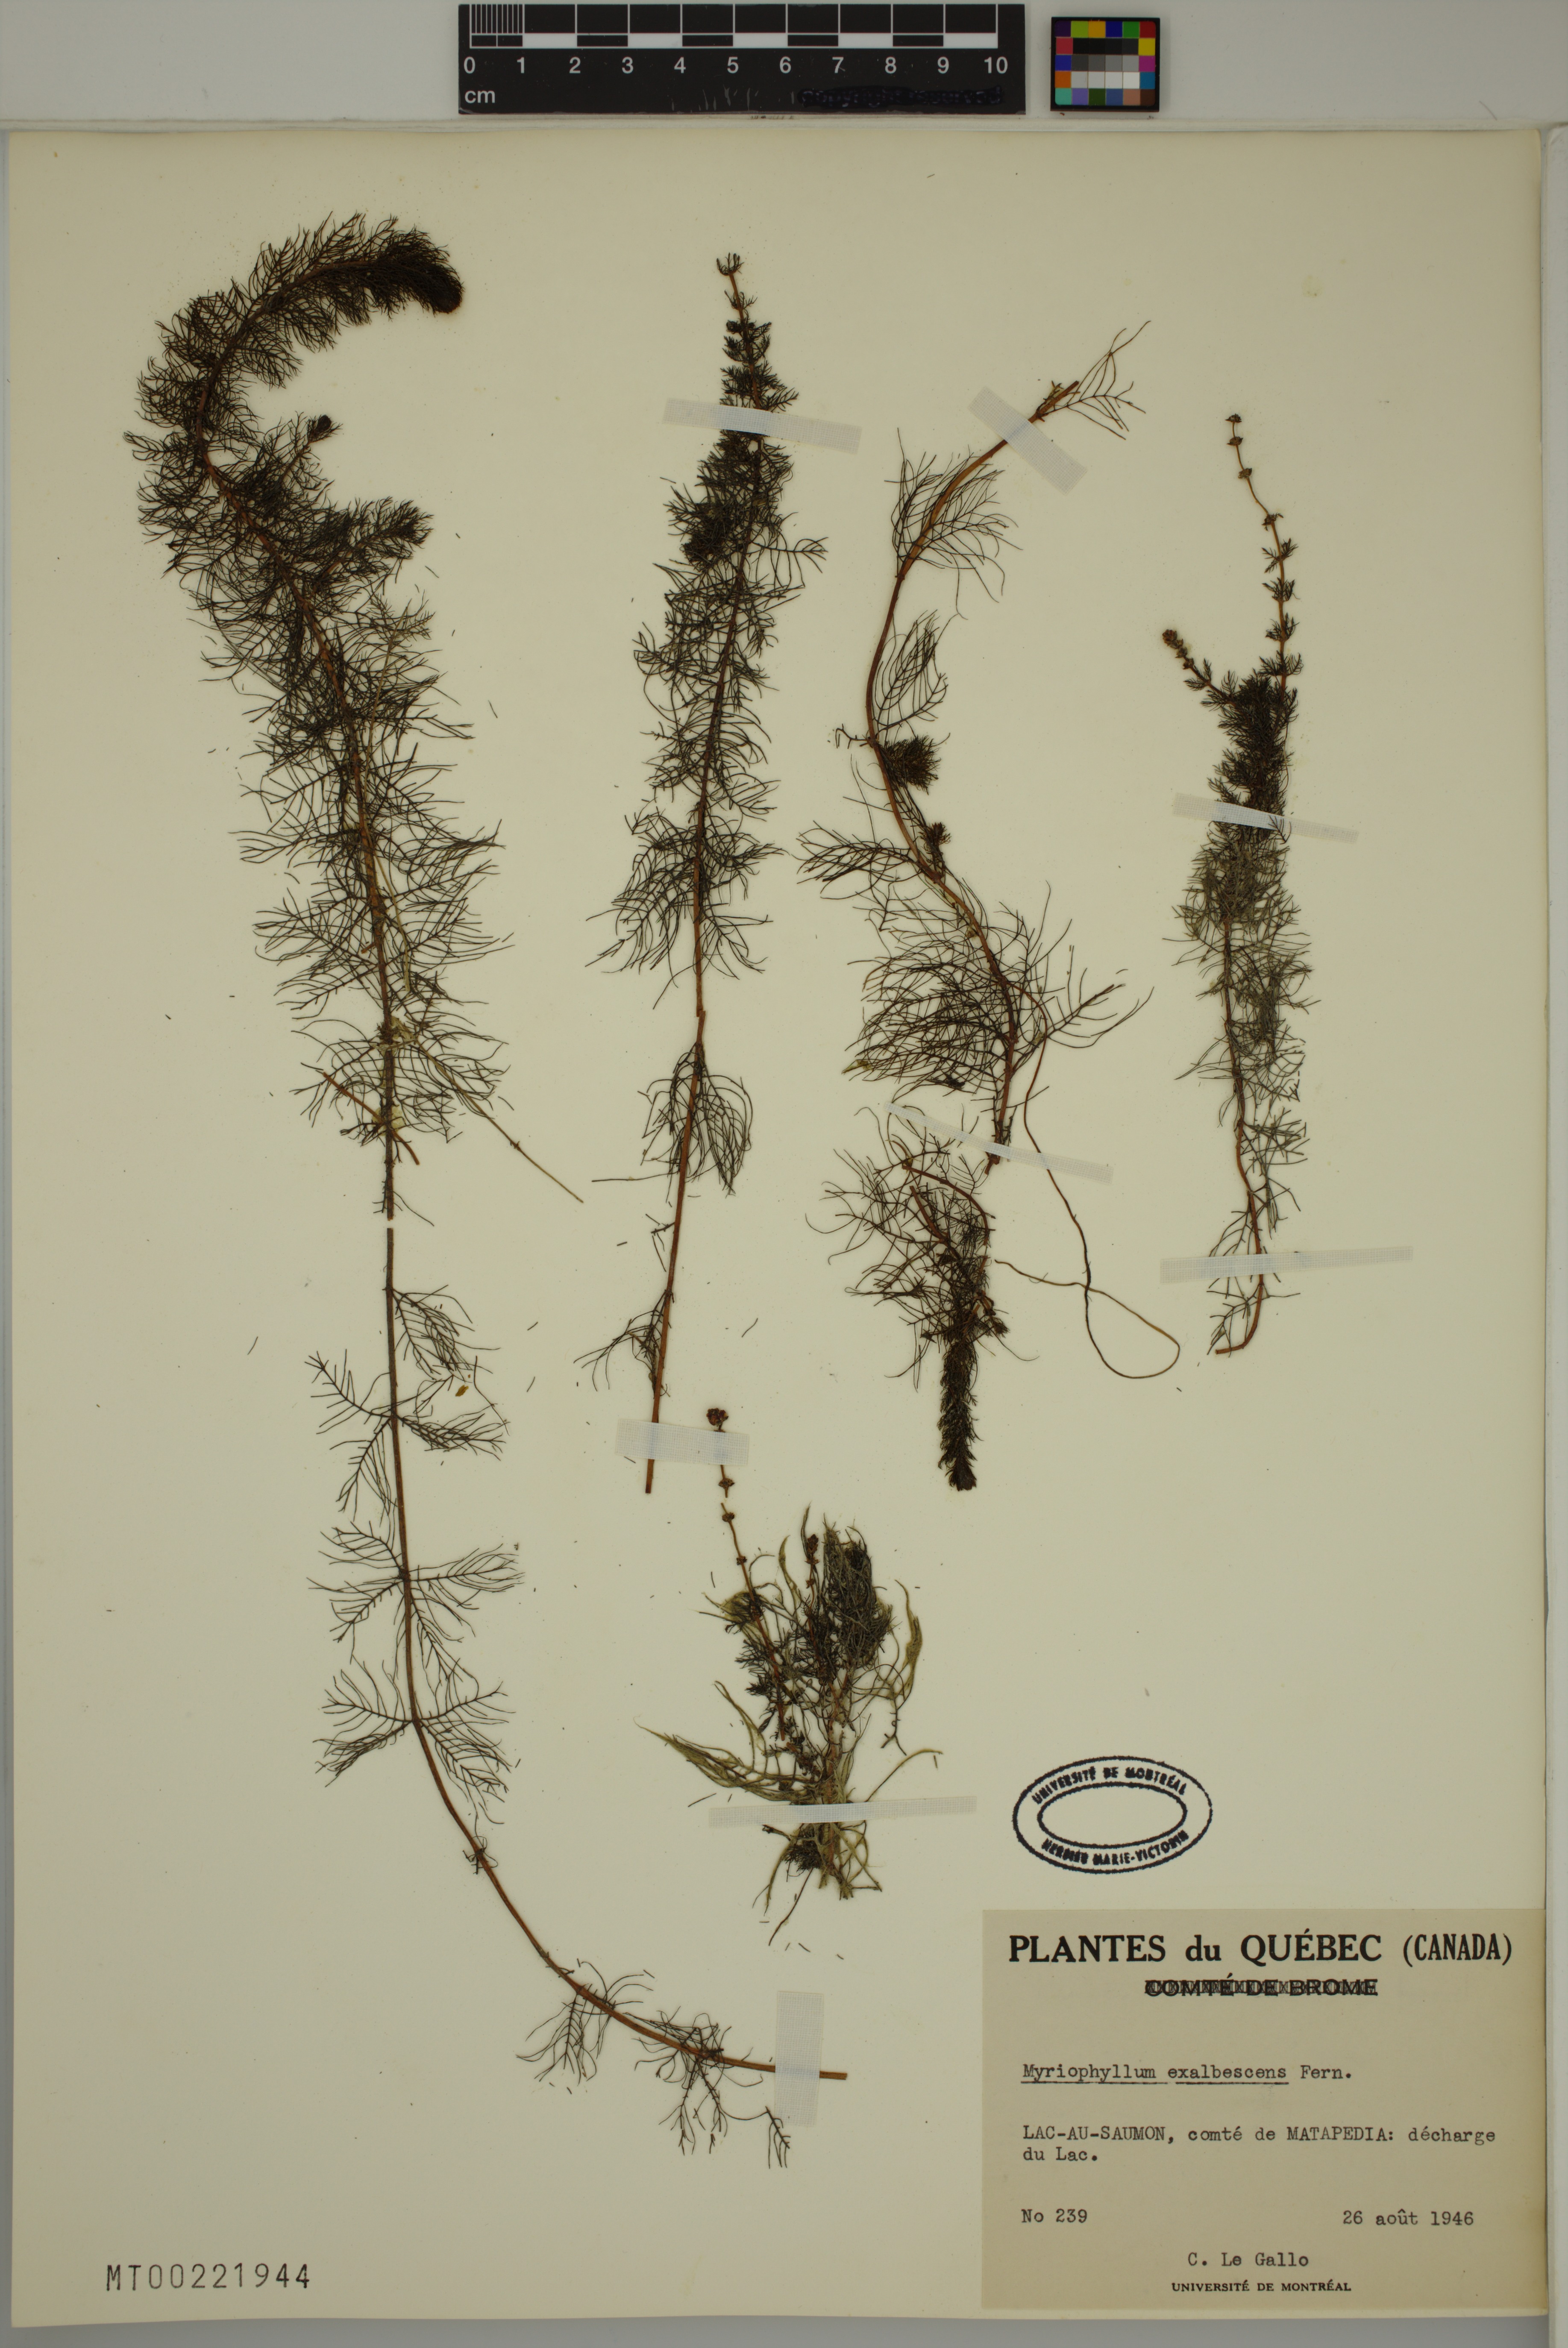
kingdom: Plantae
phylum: Tracheophyta
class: Magnoliopsida
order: Saxifragales
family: Haloragaceae
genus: Myriophyllum
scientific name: Myriophyllum sibiricum
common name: Siberian water-milfoil
